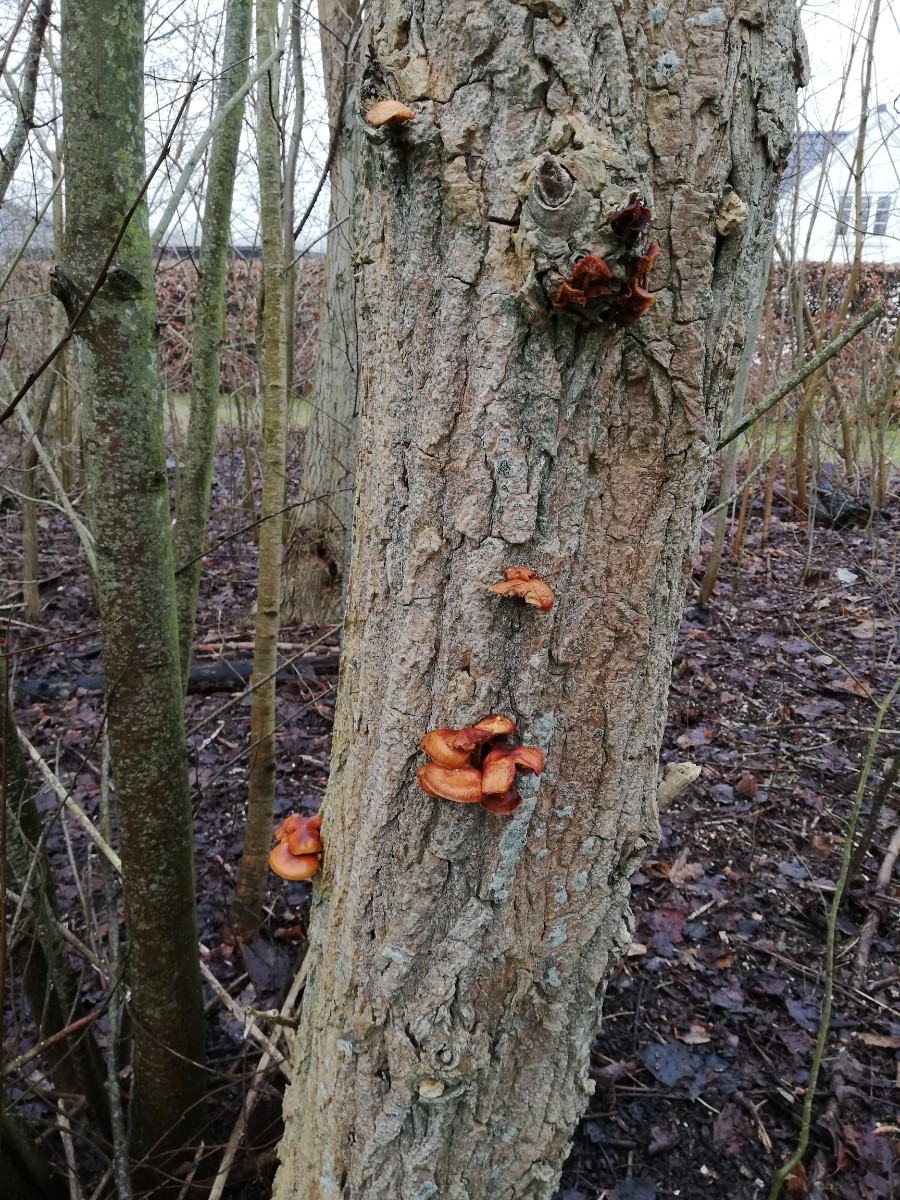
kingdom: Fungi
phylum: Basidiomycota
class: Agaricomycetes
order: Agaricales
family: Physalacriaceae
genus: Flammulina
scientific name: Flammulina
